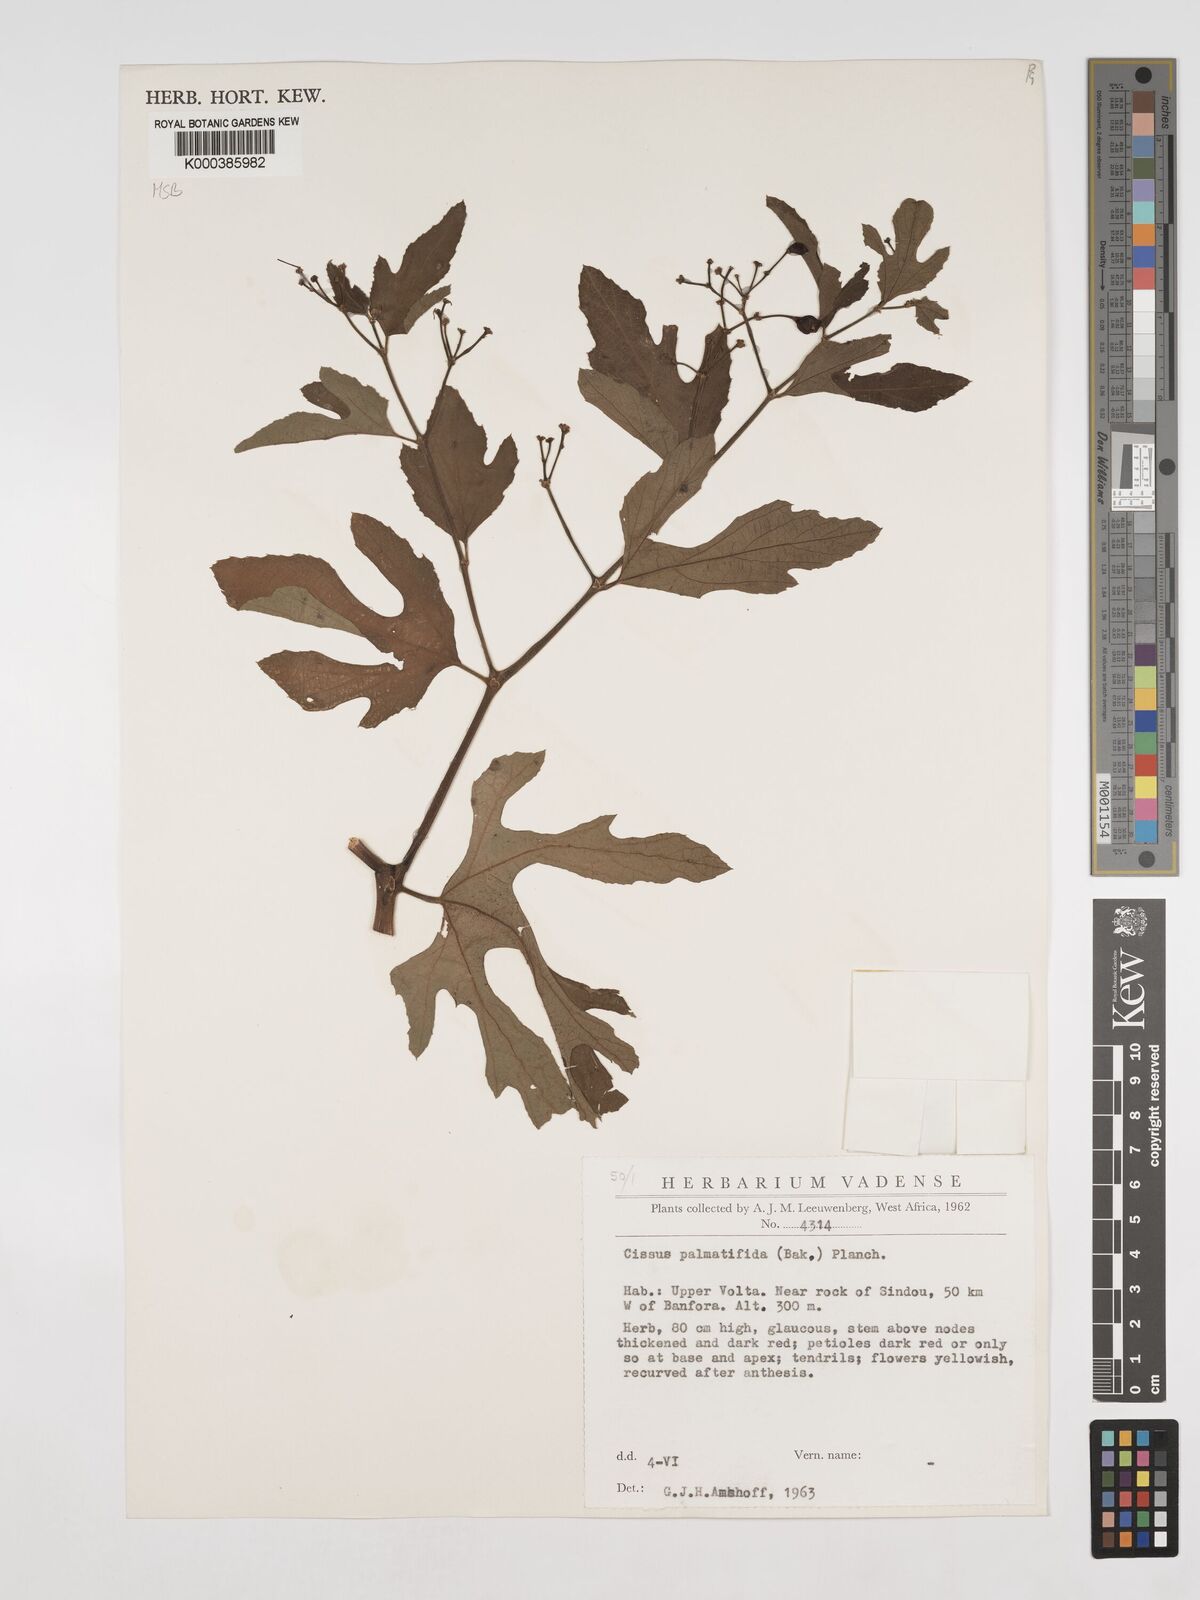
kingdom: Plantae
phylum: Tracheophyta
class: Magnoliopsida
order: Vitales
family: Vitaceae
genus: Cissus
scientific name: Cissus palmatifida
